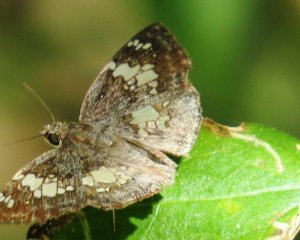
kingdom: Animalia
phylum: Arthropoda
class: Insecta
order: Lepidoptera
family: Hesperiidae
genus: Xenophanes
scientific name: Xenophanes tryxus
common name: Glassy-winged Skipper
